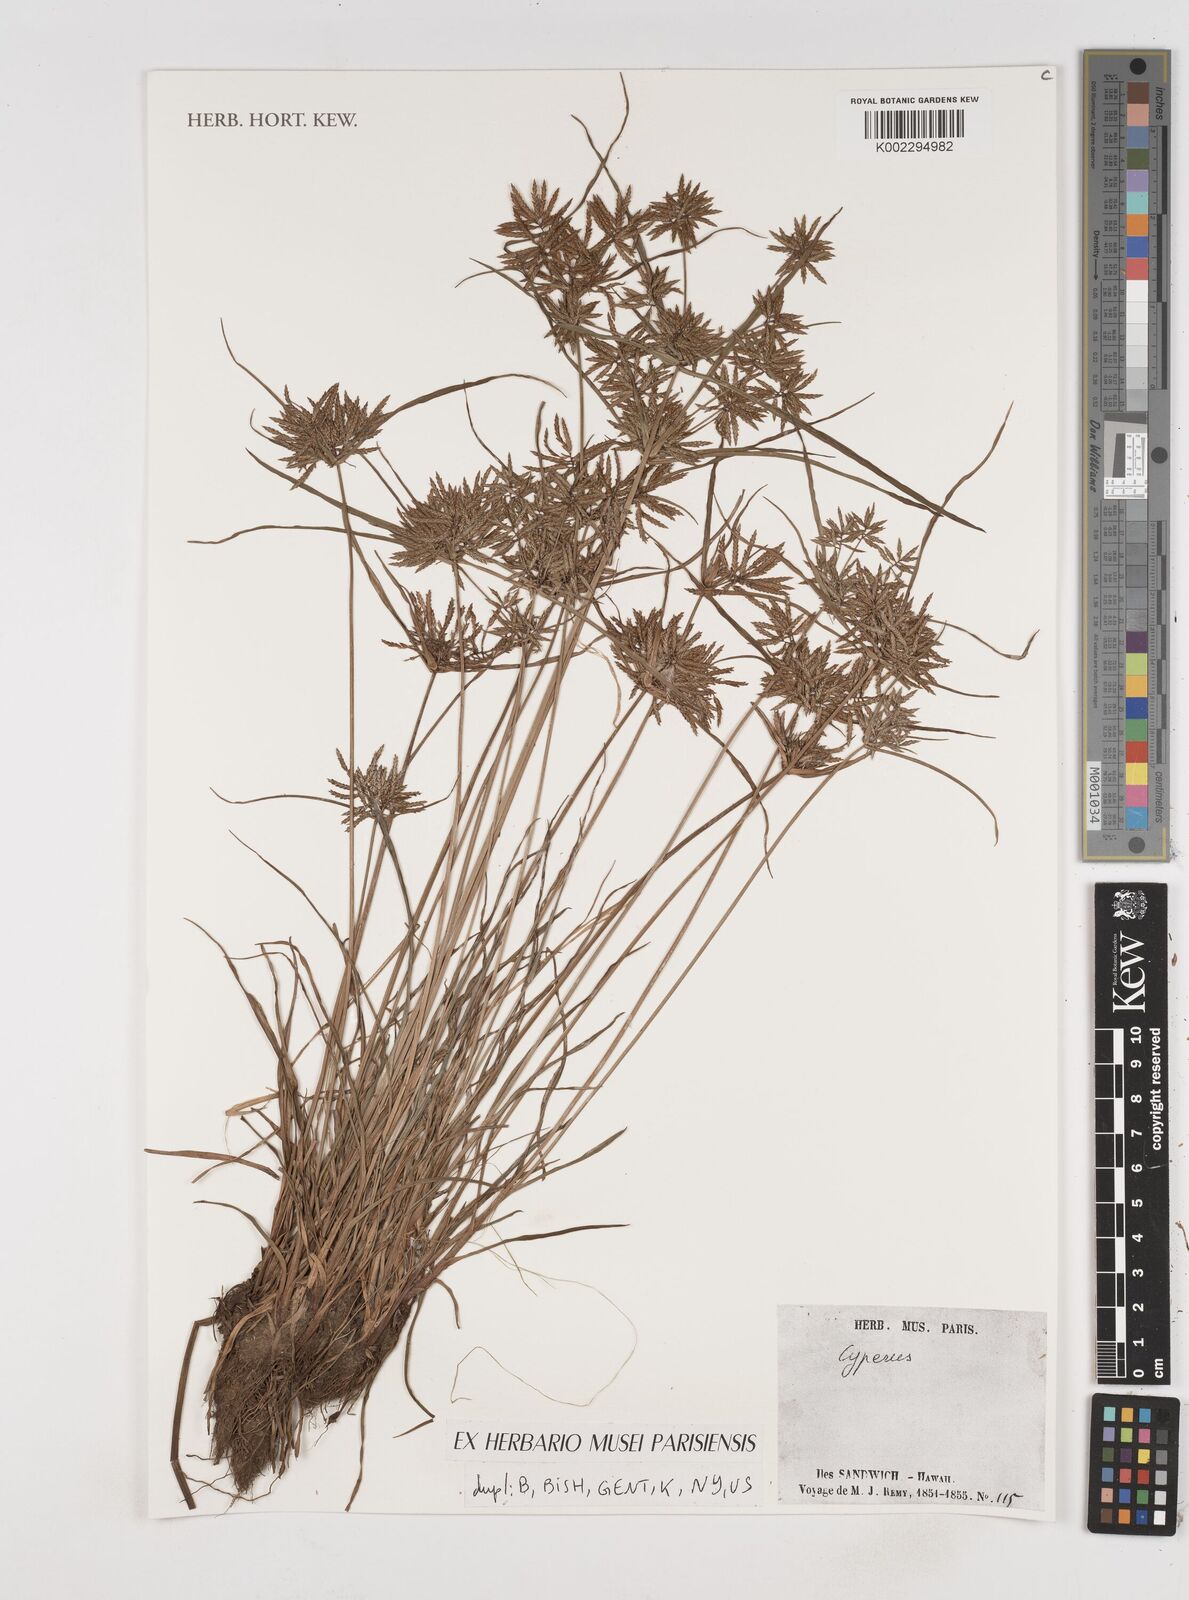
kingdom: Plantae
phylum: Tracheophyta
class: Liliopsida
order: Poales
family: Cyperaceae
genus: Cyperus
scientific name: Cyperus
